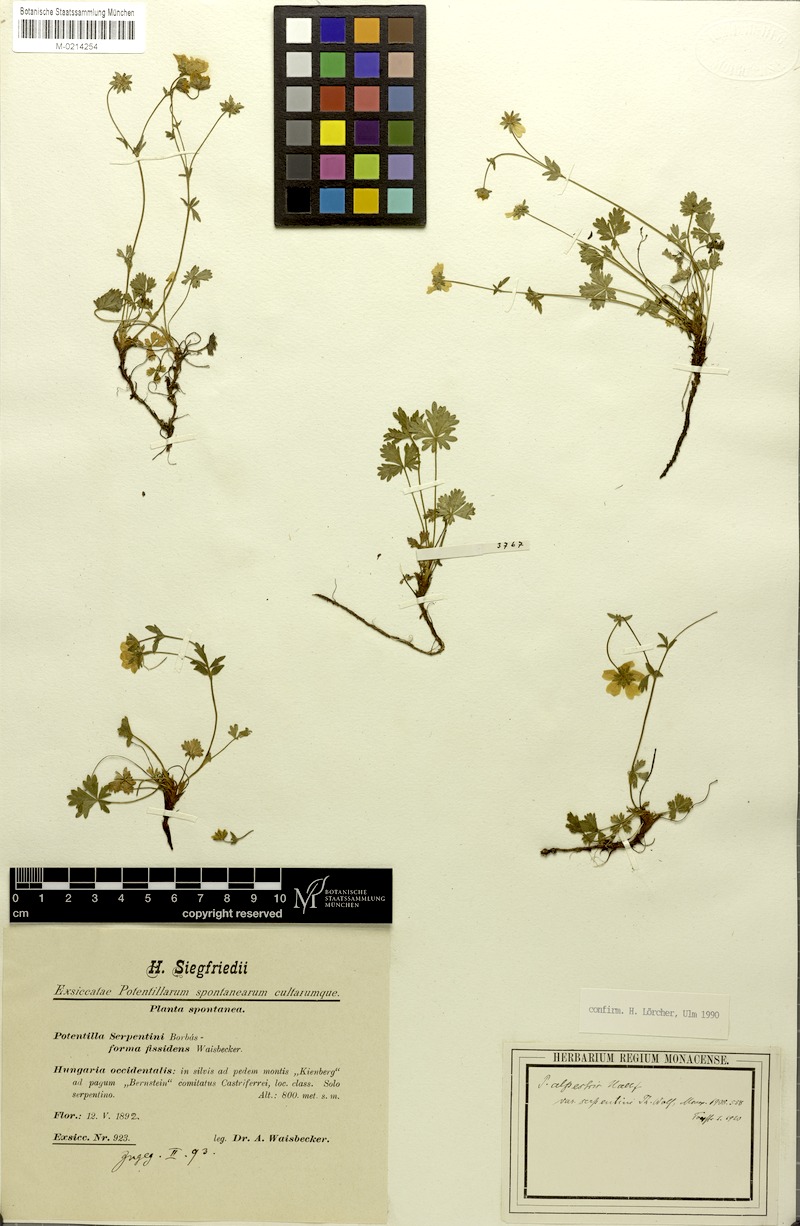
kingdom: Plantae
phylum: Tracheophyta
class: Magnoliopsida
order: Rosales
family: Rosaceae
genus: Potentilla
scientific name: Potentilla crantzii
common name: Alpine cinquefoil
